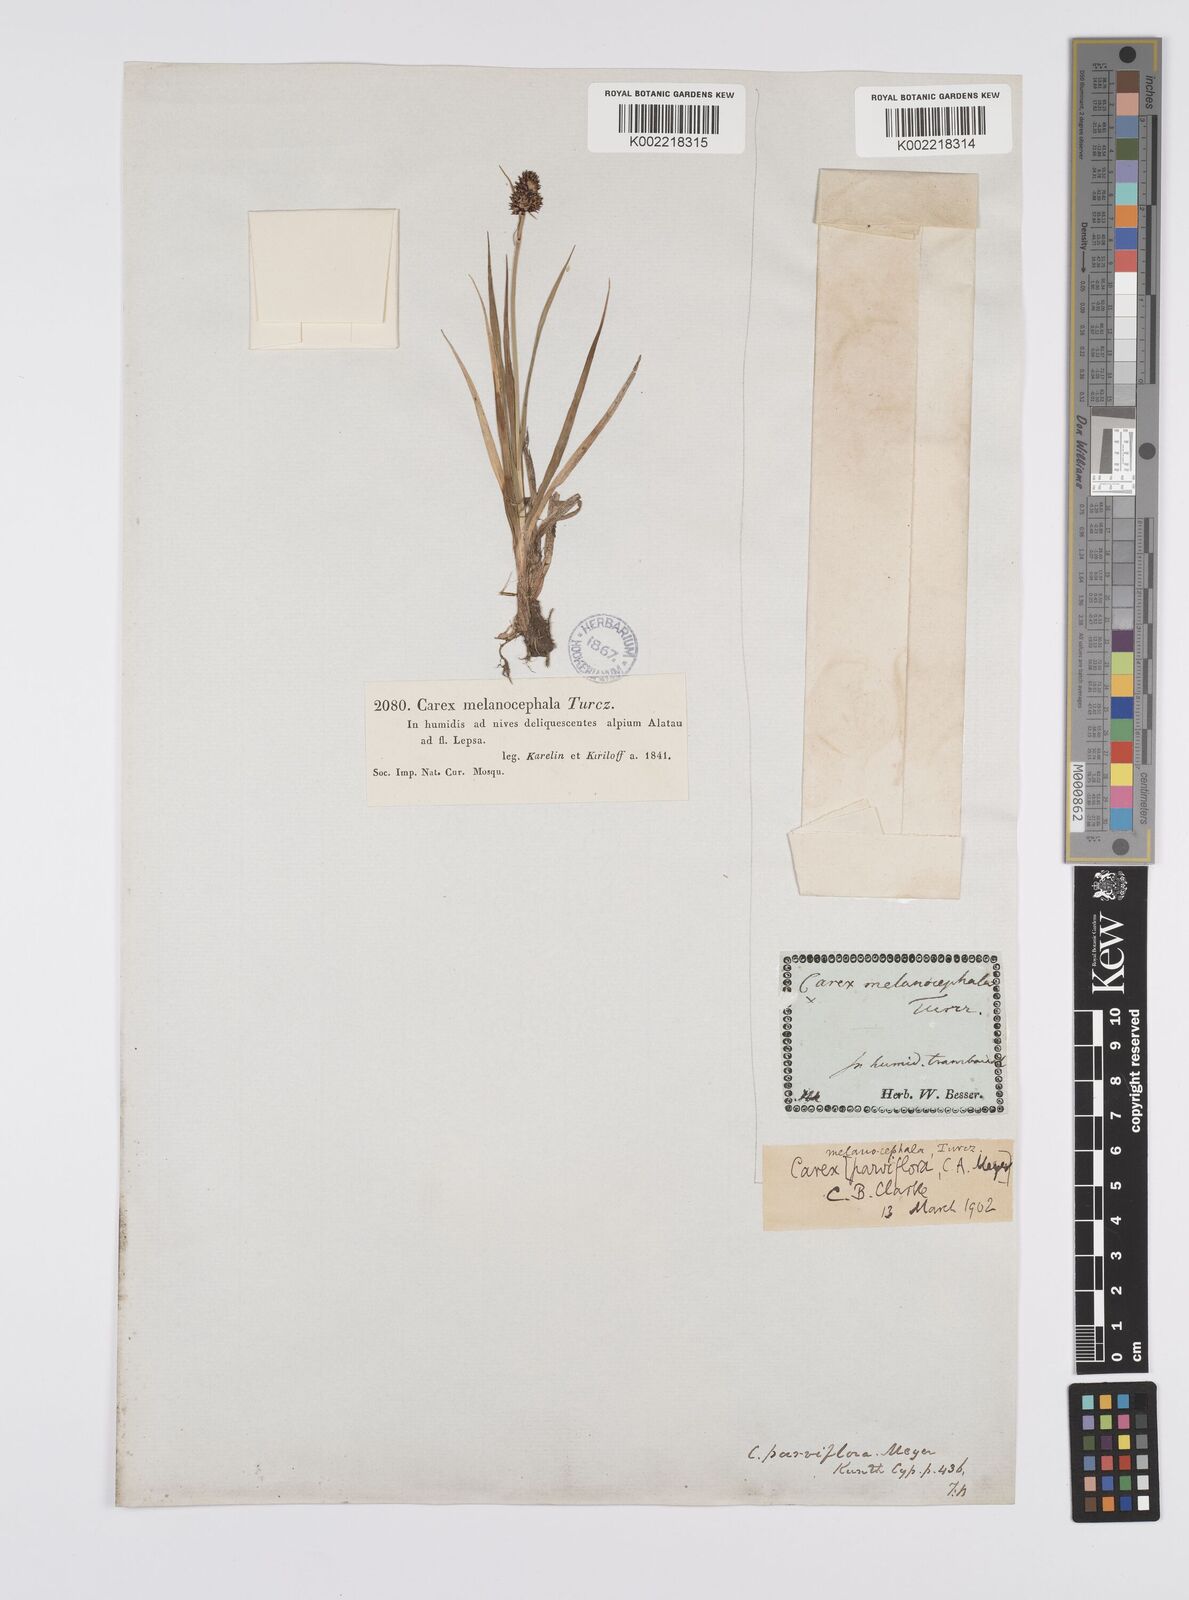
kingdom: Plantae
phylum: Tracheophyta
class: Liliopsida
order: Poales
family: Cyperaceae
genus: Carex
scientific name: Carex melanocephala
